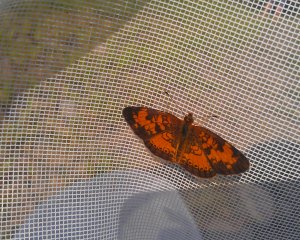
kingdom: Animalia
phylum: Arthropoda
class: Insecta
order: Lepidoptera
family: Nymphalidae
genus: Phyciodes
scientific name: Phyciodes tharos
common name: Northern Crescent
